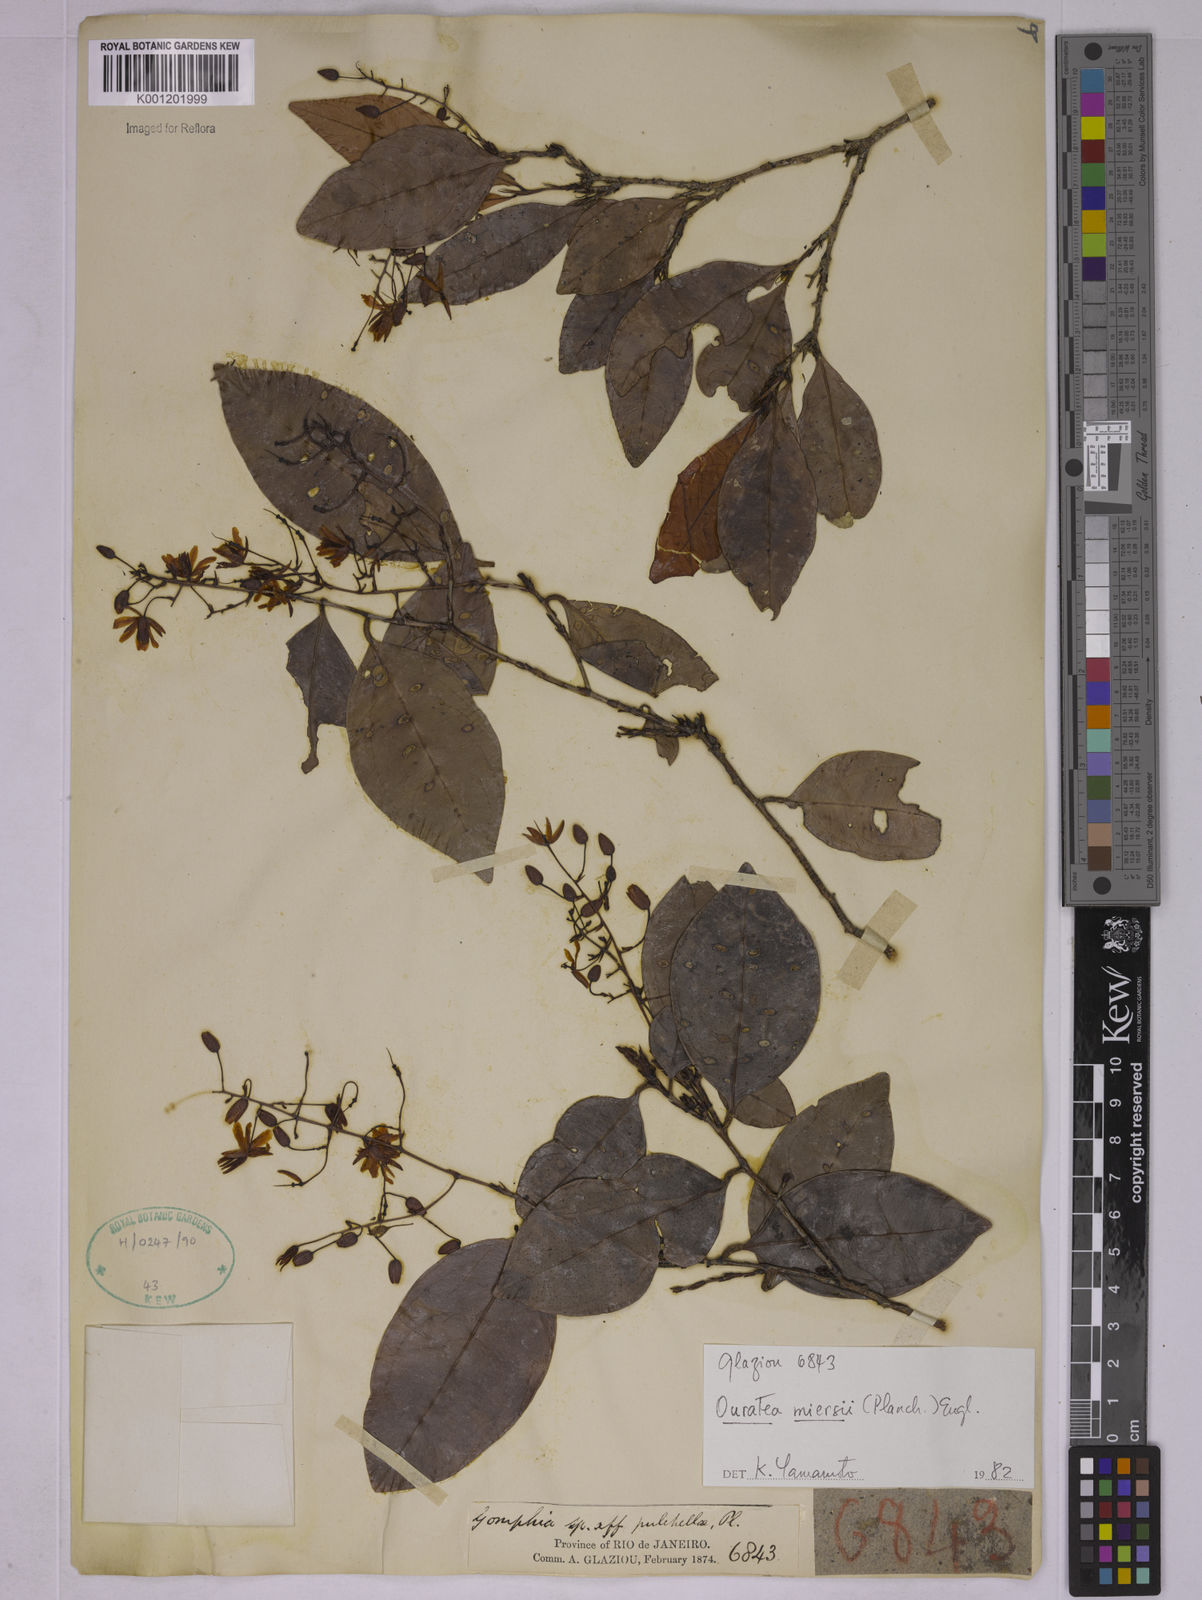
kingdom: Plantae
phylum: Tracheophyta
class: Magnoliopsida
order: Malpighiales
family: Ochnaceae
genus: Ouratea
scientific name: Ouratea miersii
